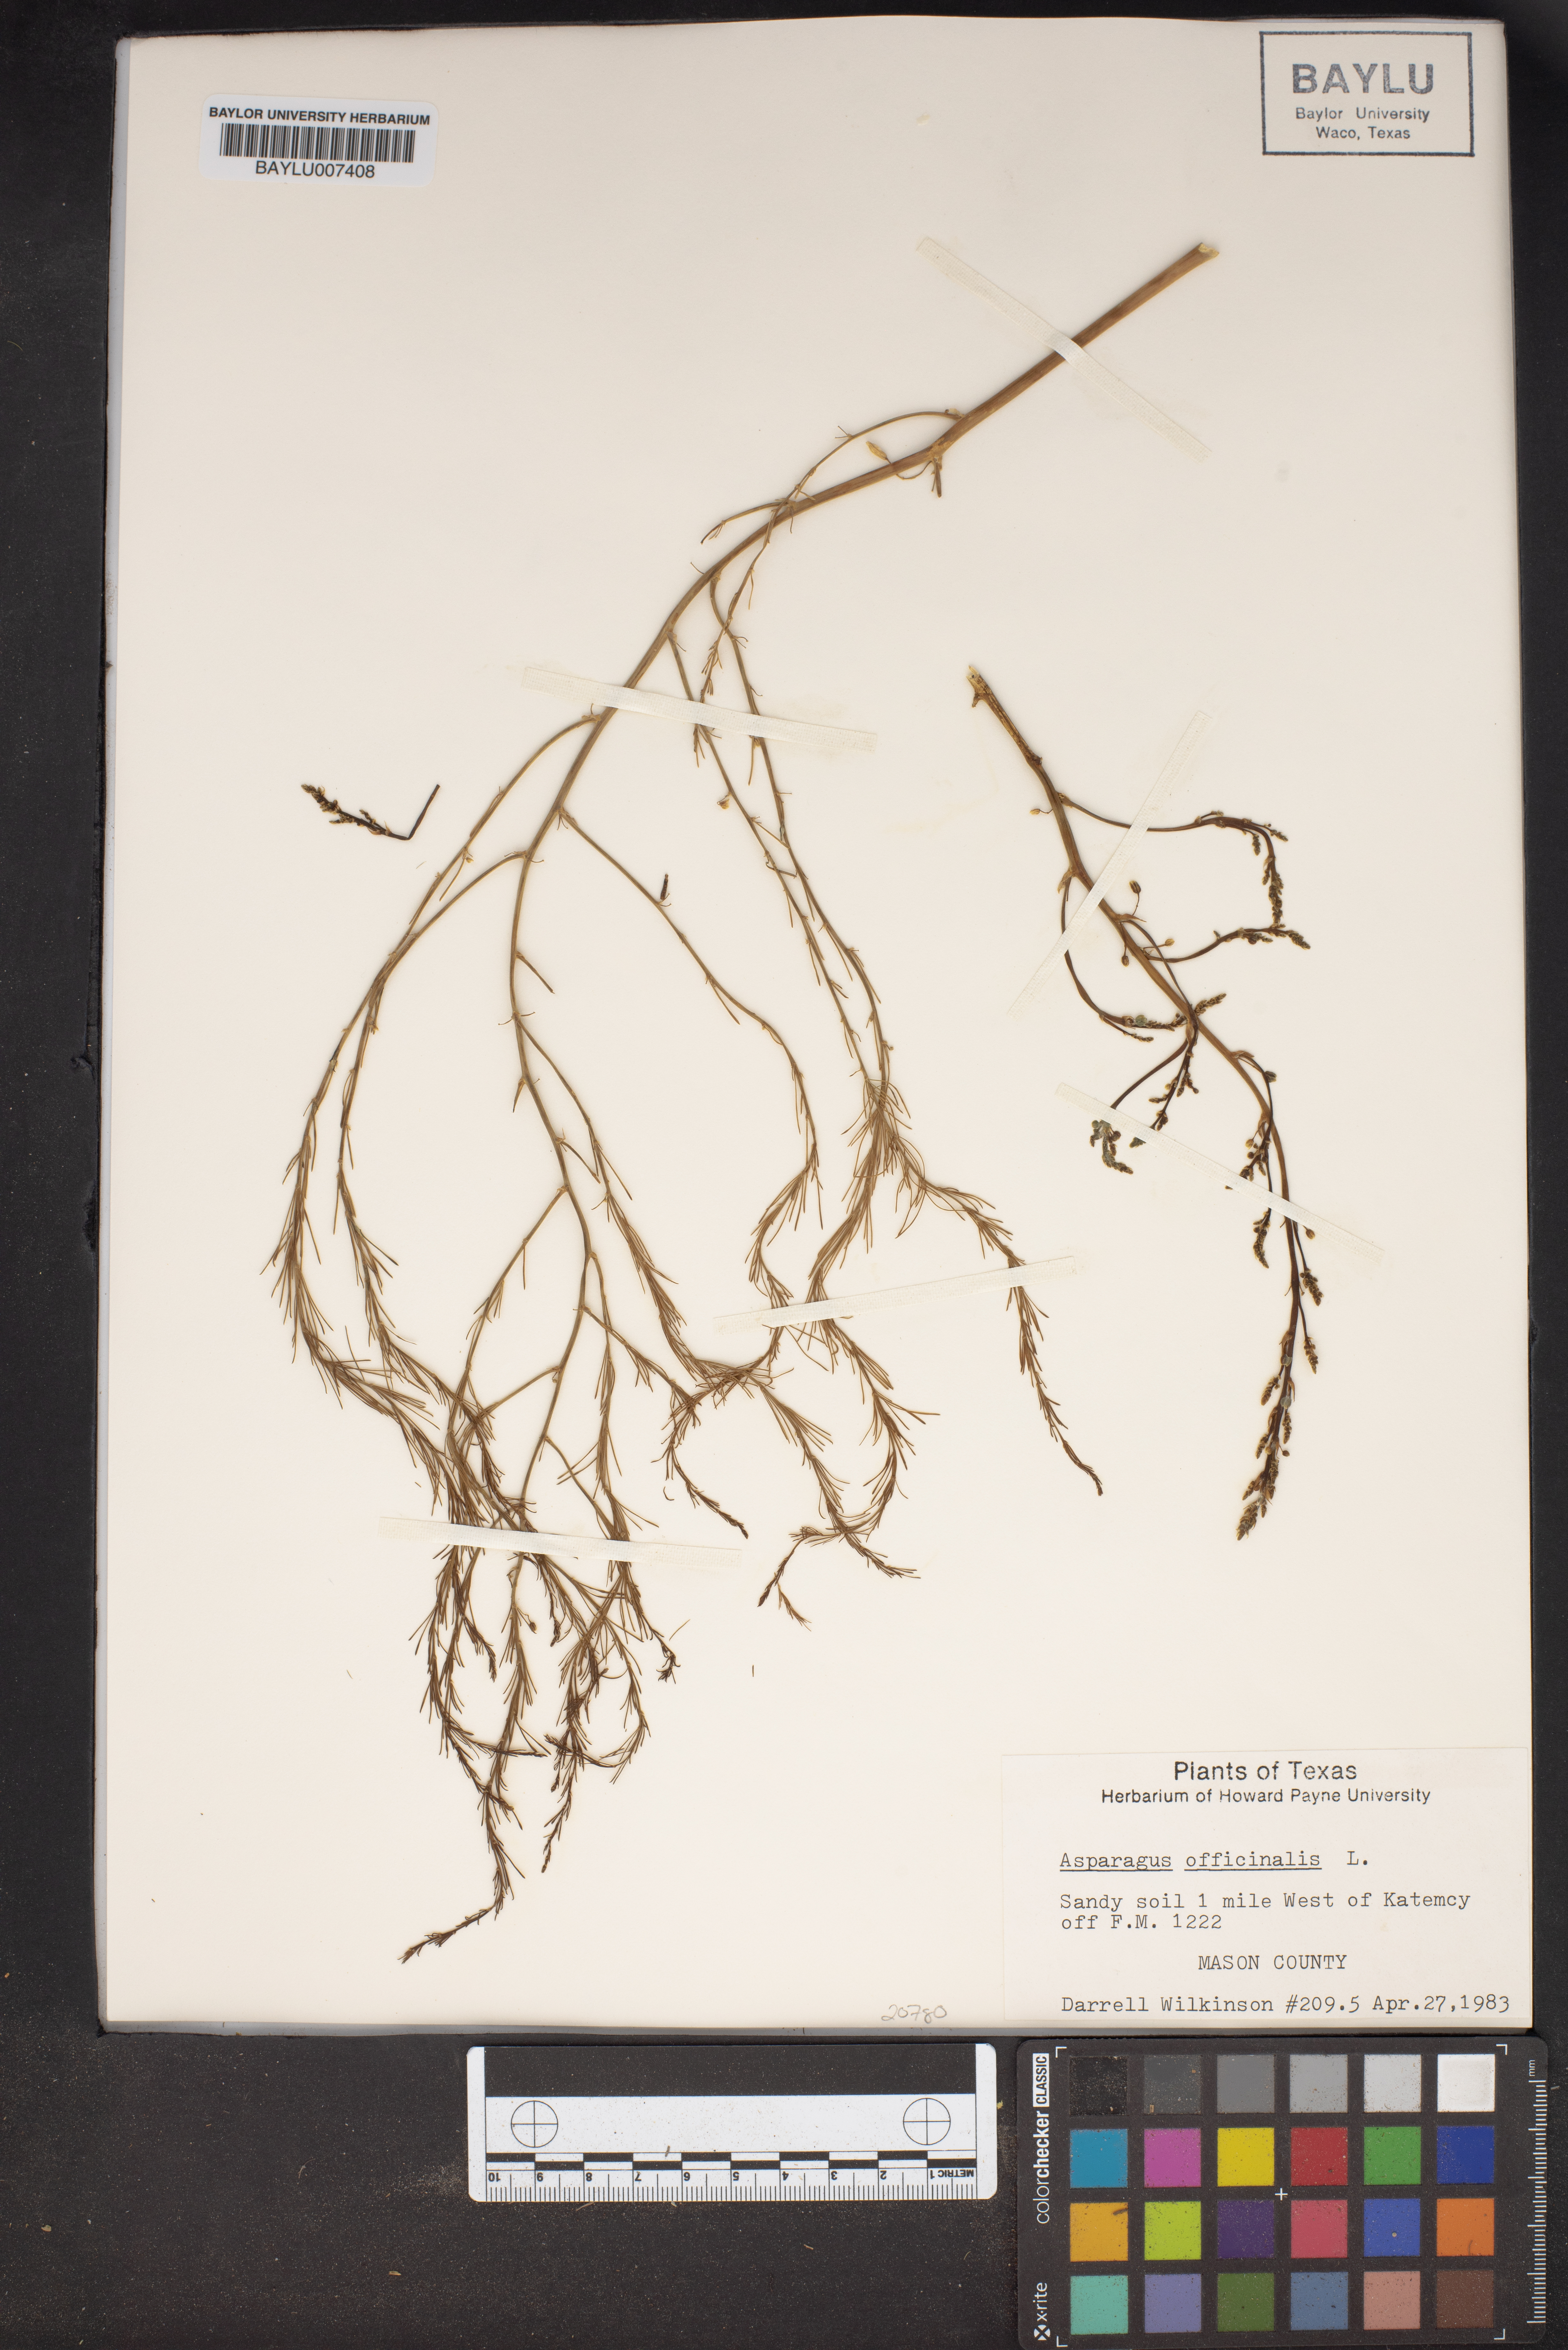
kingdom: Plantae
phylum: Tracheophyta
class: Liliopsida
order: Asparagales
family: Asparagaceae
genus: Asparagus
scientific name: Asparagus officinalis
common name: Garden asparagus
